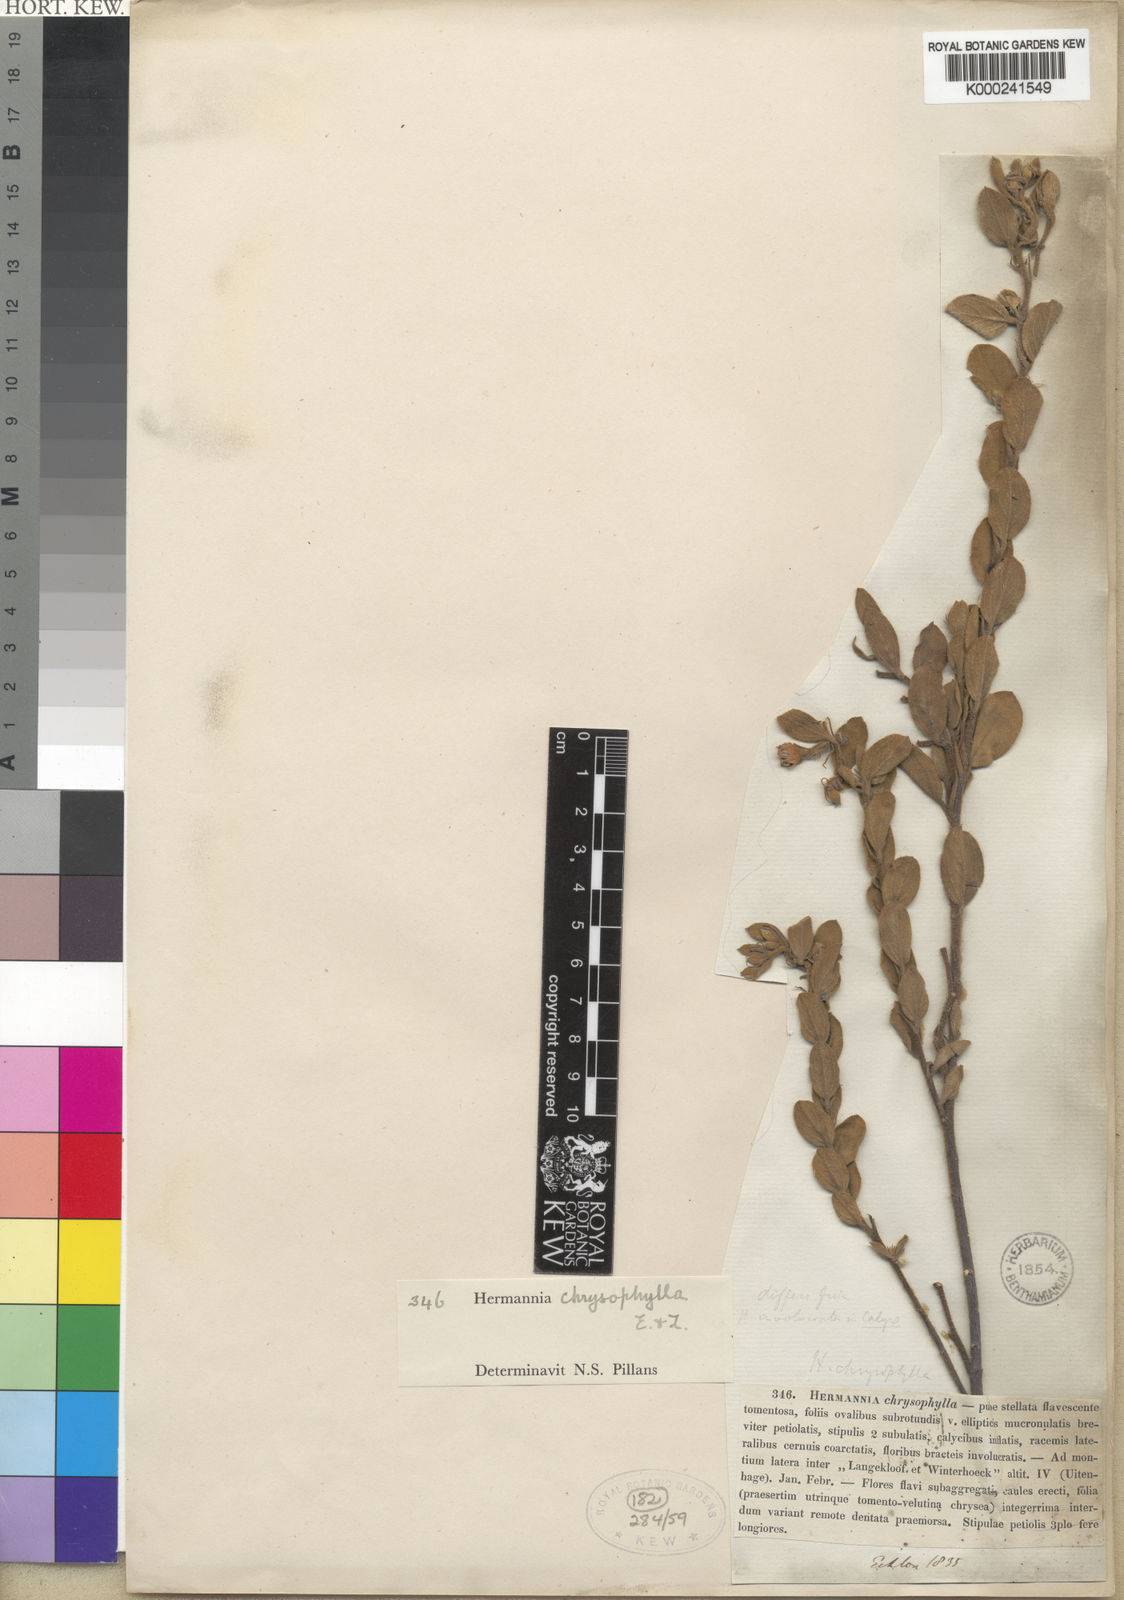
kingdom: Plantae
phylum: Tracheophyta
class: Magnoliopsida
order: Malvales
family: Malvaceae
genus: Hermannia
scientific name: Hermannia involucrata
